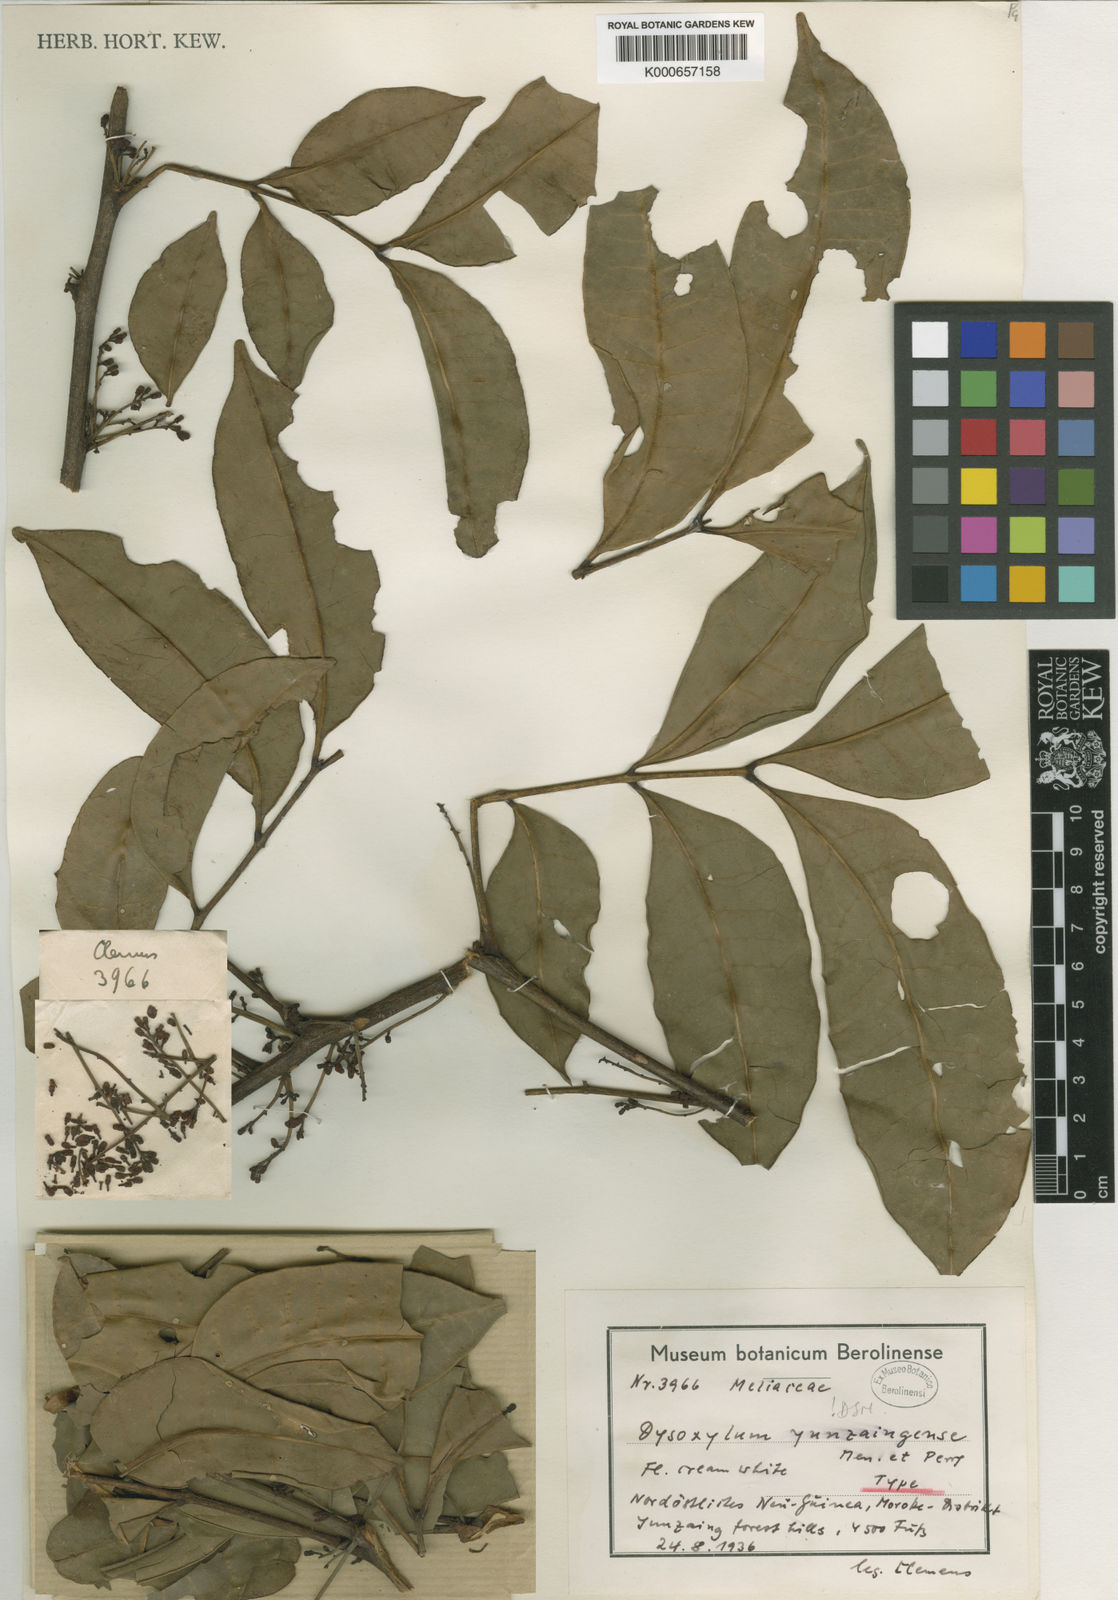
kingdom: Plantae
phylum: Tracheophyta
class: Magnoliopsida
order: Sapindales
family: Meliaceae
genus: Pseudocarapa
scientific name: Pseudocarapa yunzaingensis
